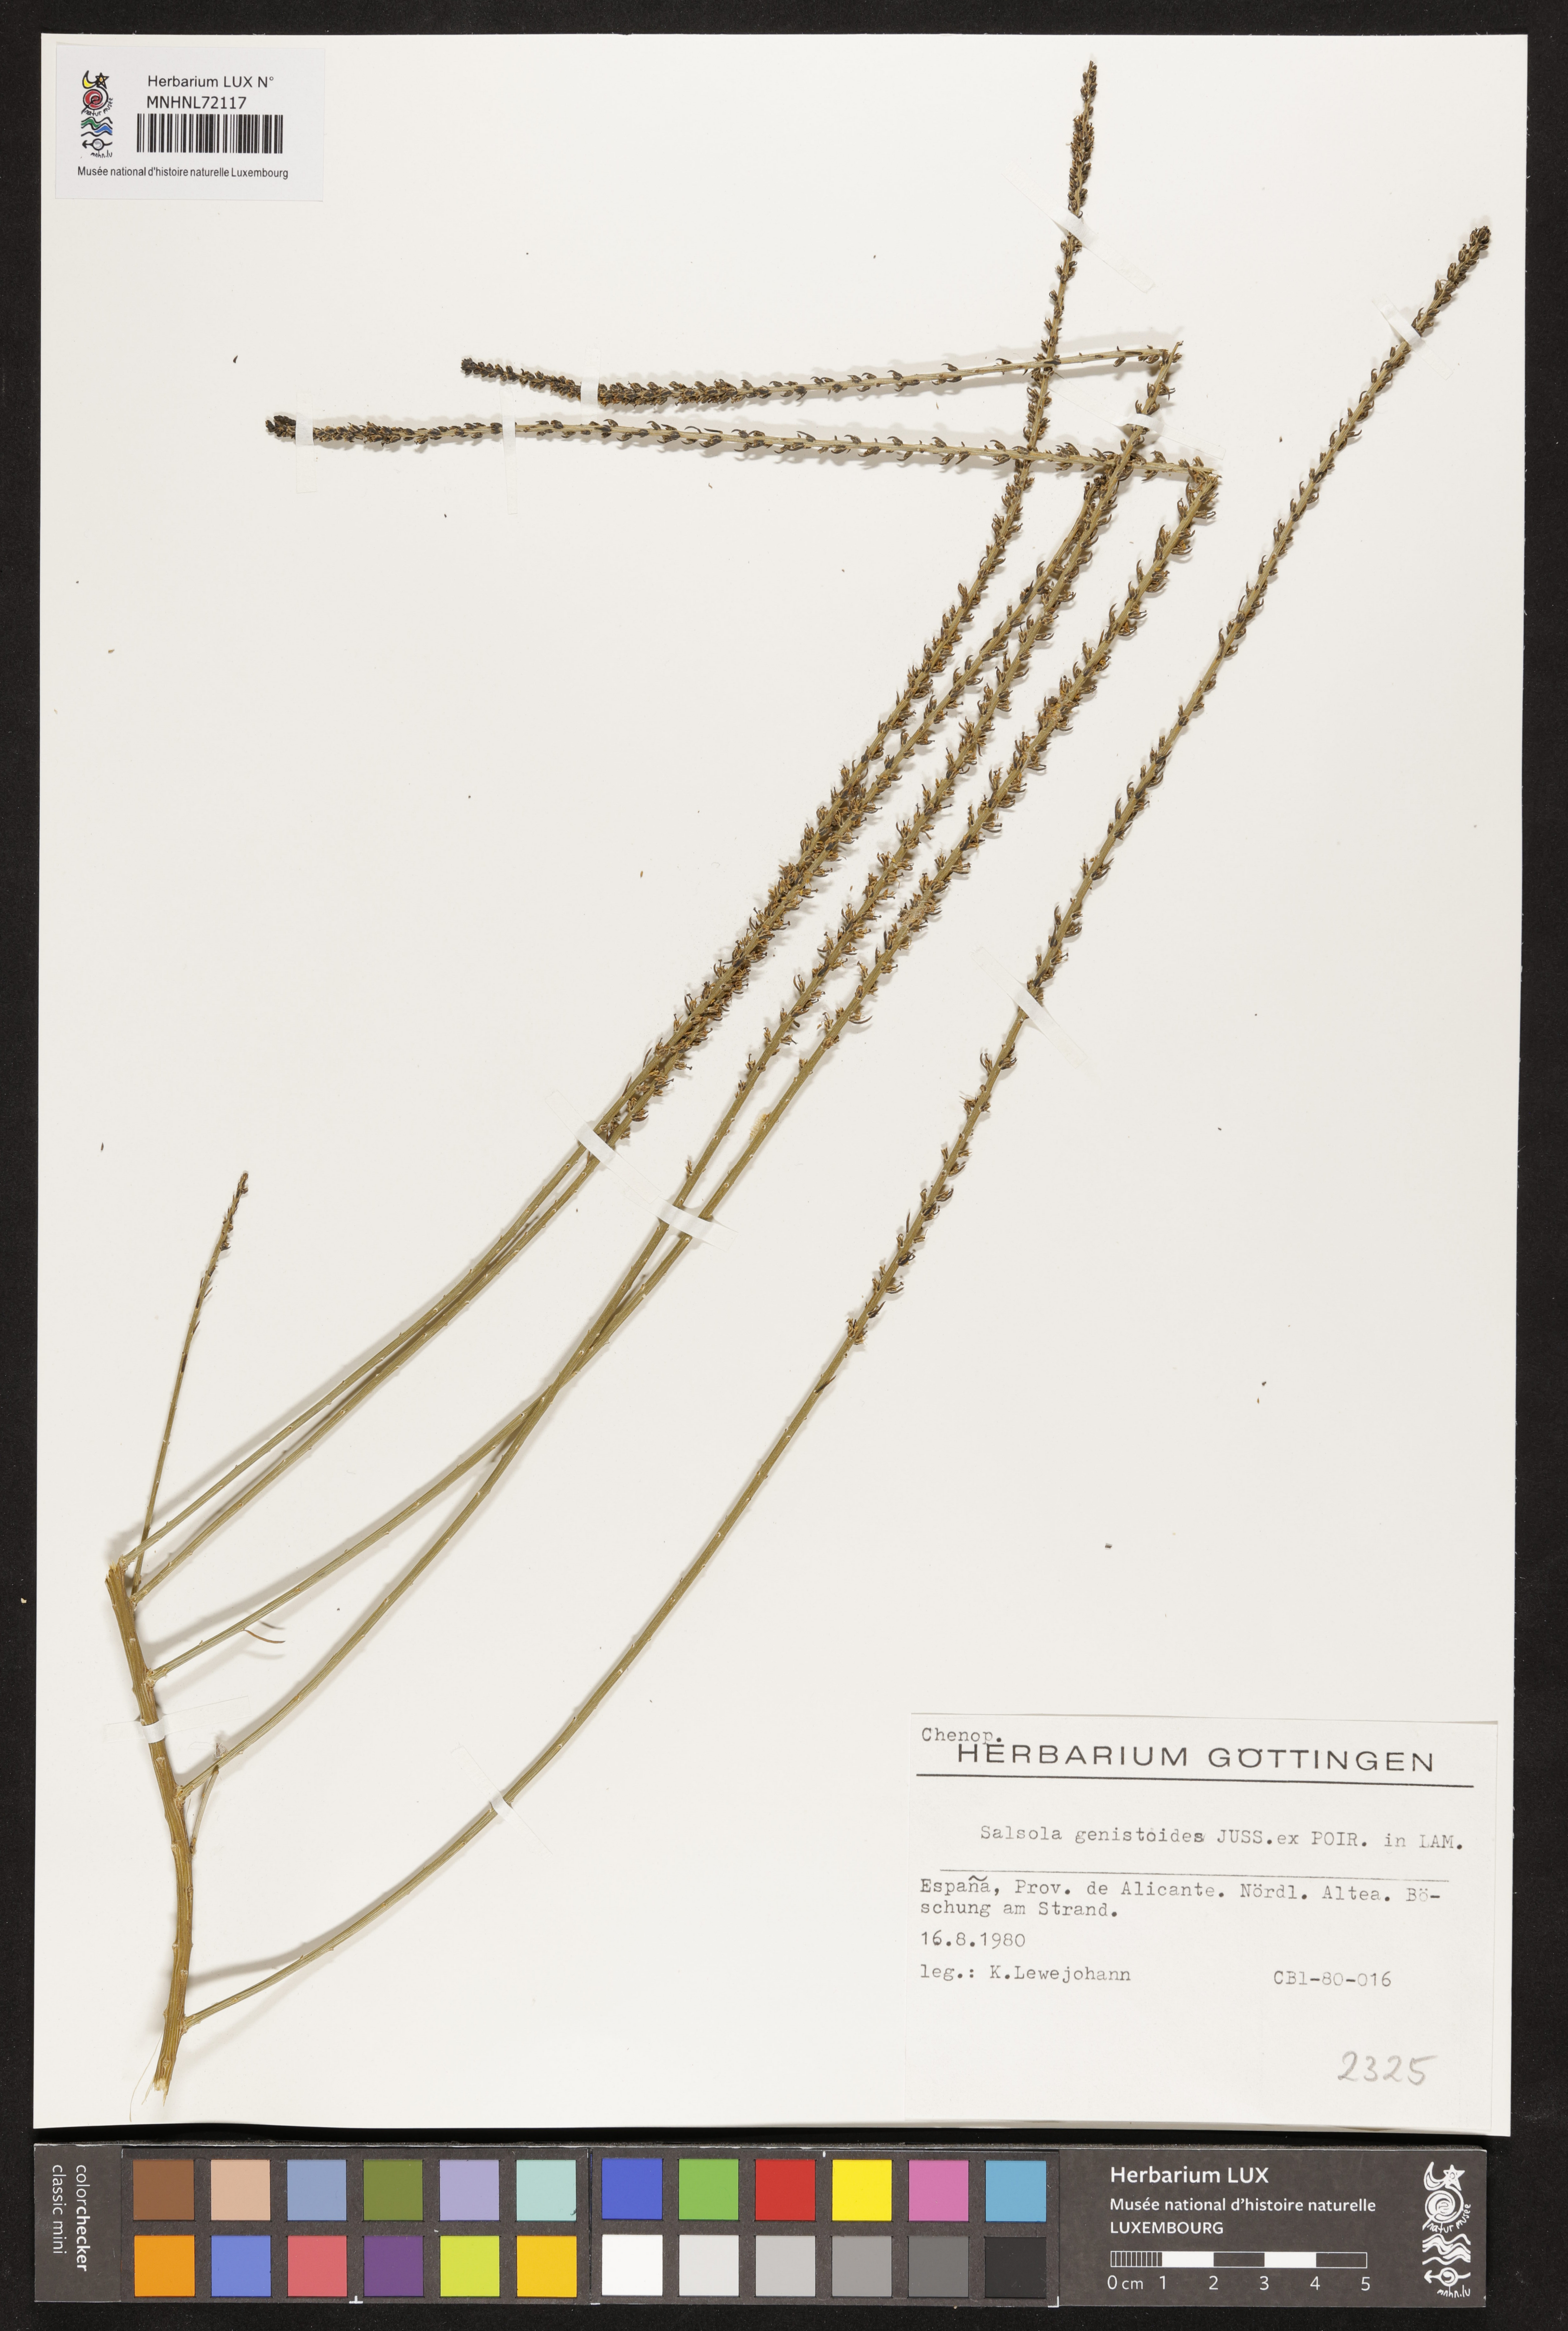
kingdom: Plantae
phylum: Tracheophyta
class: Magnoliopsida
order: Caryophyllales
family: Amaranthaceae
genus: Caroxylon
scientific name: Caroxylon genistoides
